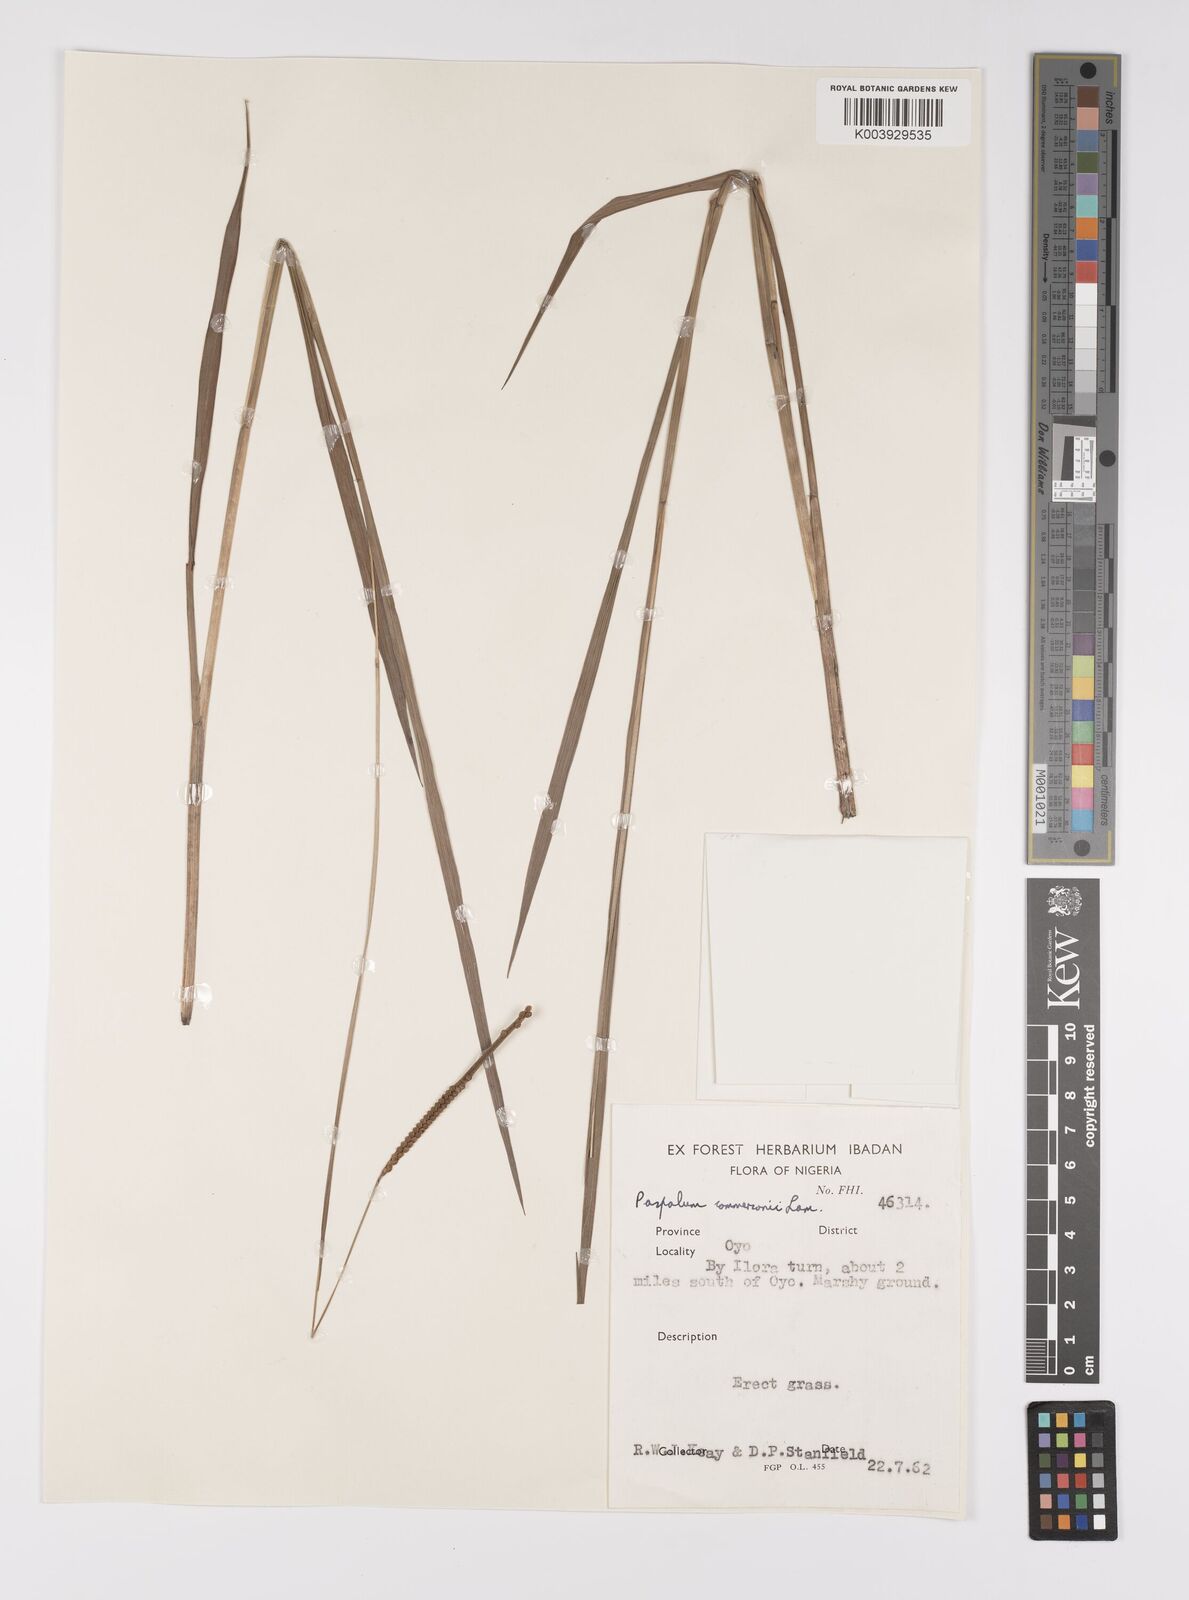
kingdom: Plantae
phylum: Tracheophyta
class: Liliopsida
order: Poales
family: Poaceae
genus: Paspalum
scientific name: Paspalum scrobiculatum
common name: Kodo millet
